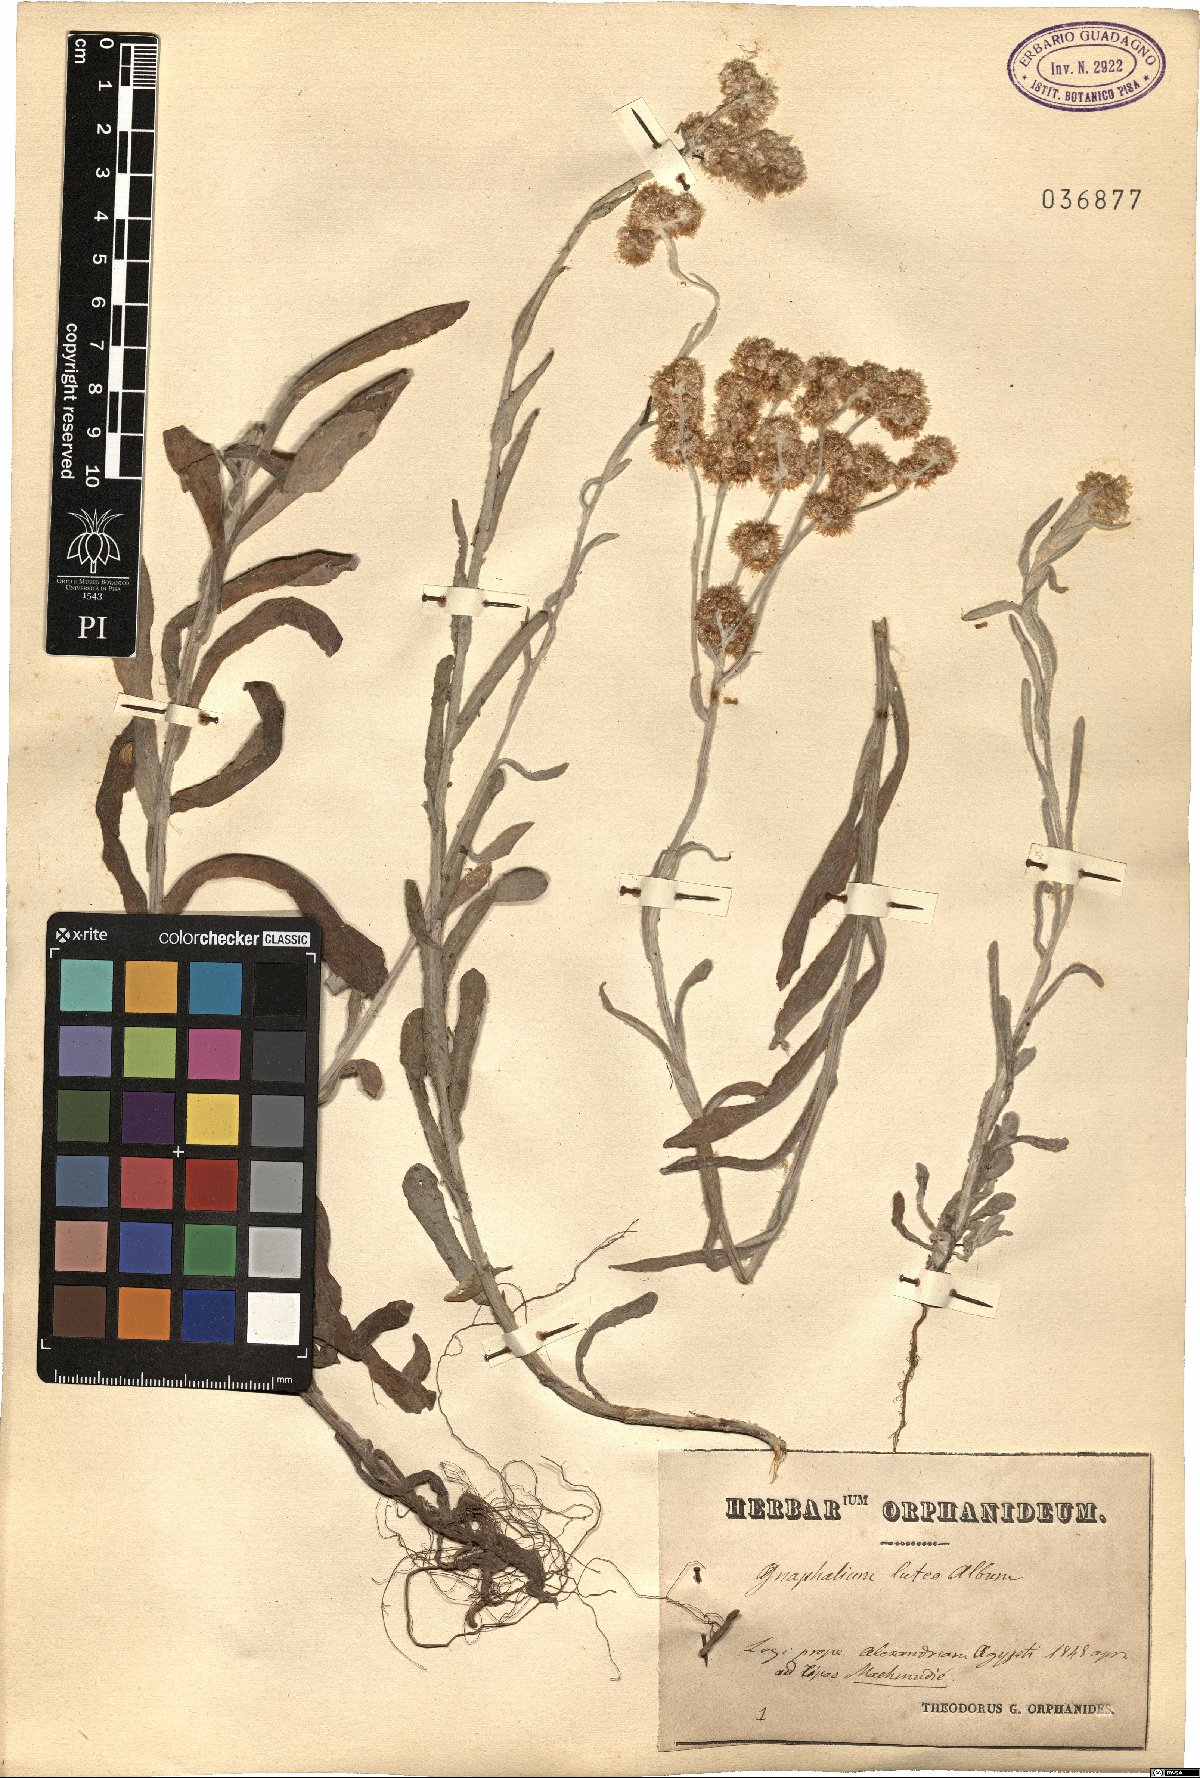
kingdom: Plantae
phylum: Tracheophyta
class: Magnoliopsida
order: Asterales
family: Asteraceae
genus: Helichrysum
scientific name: Helichrysum luteoalbum
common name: Daisy
